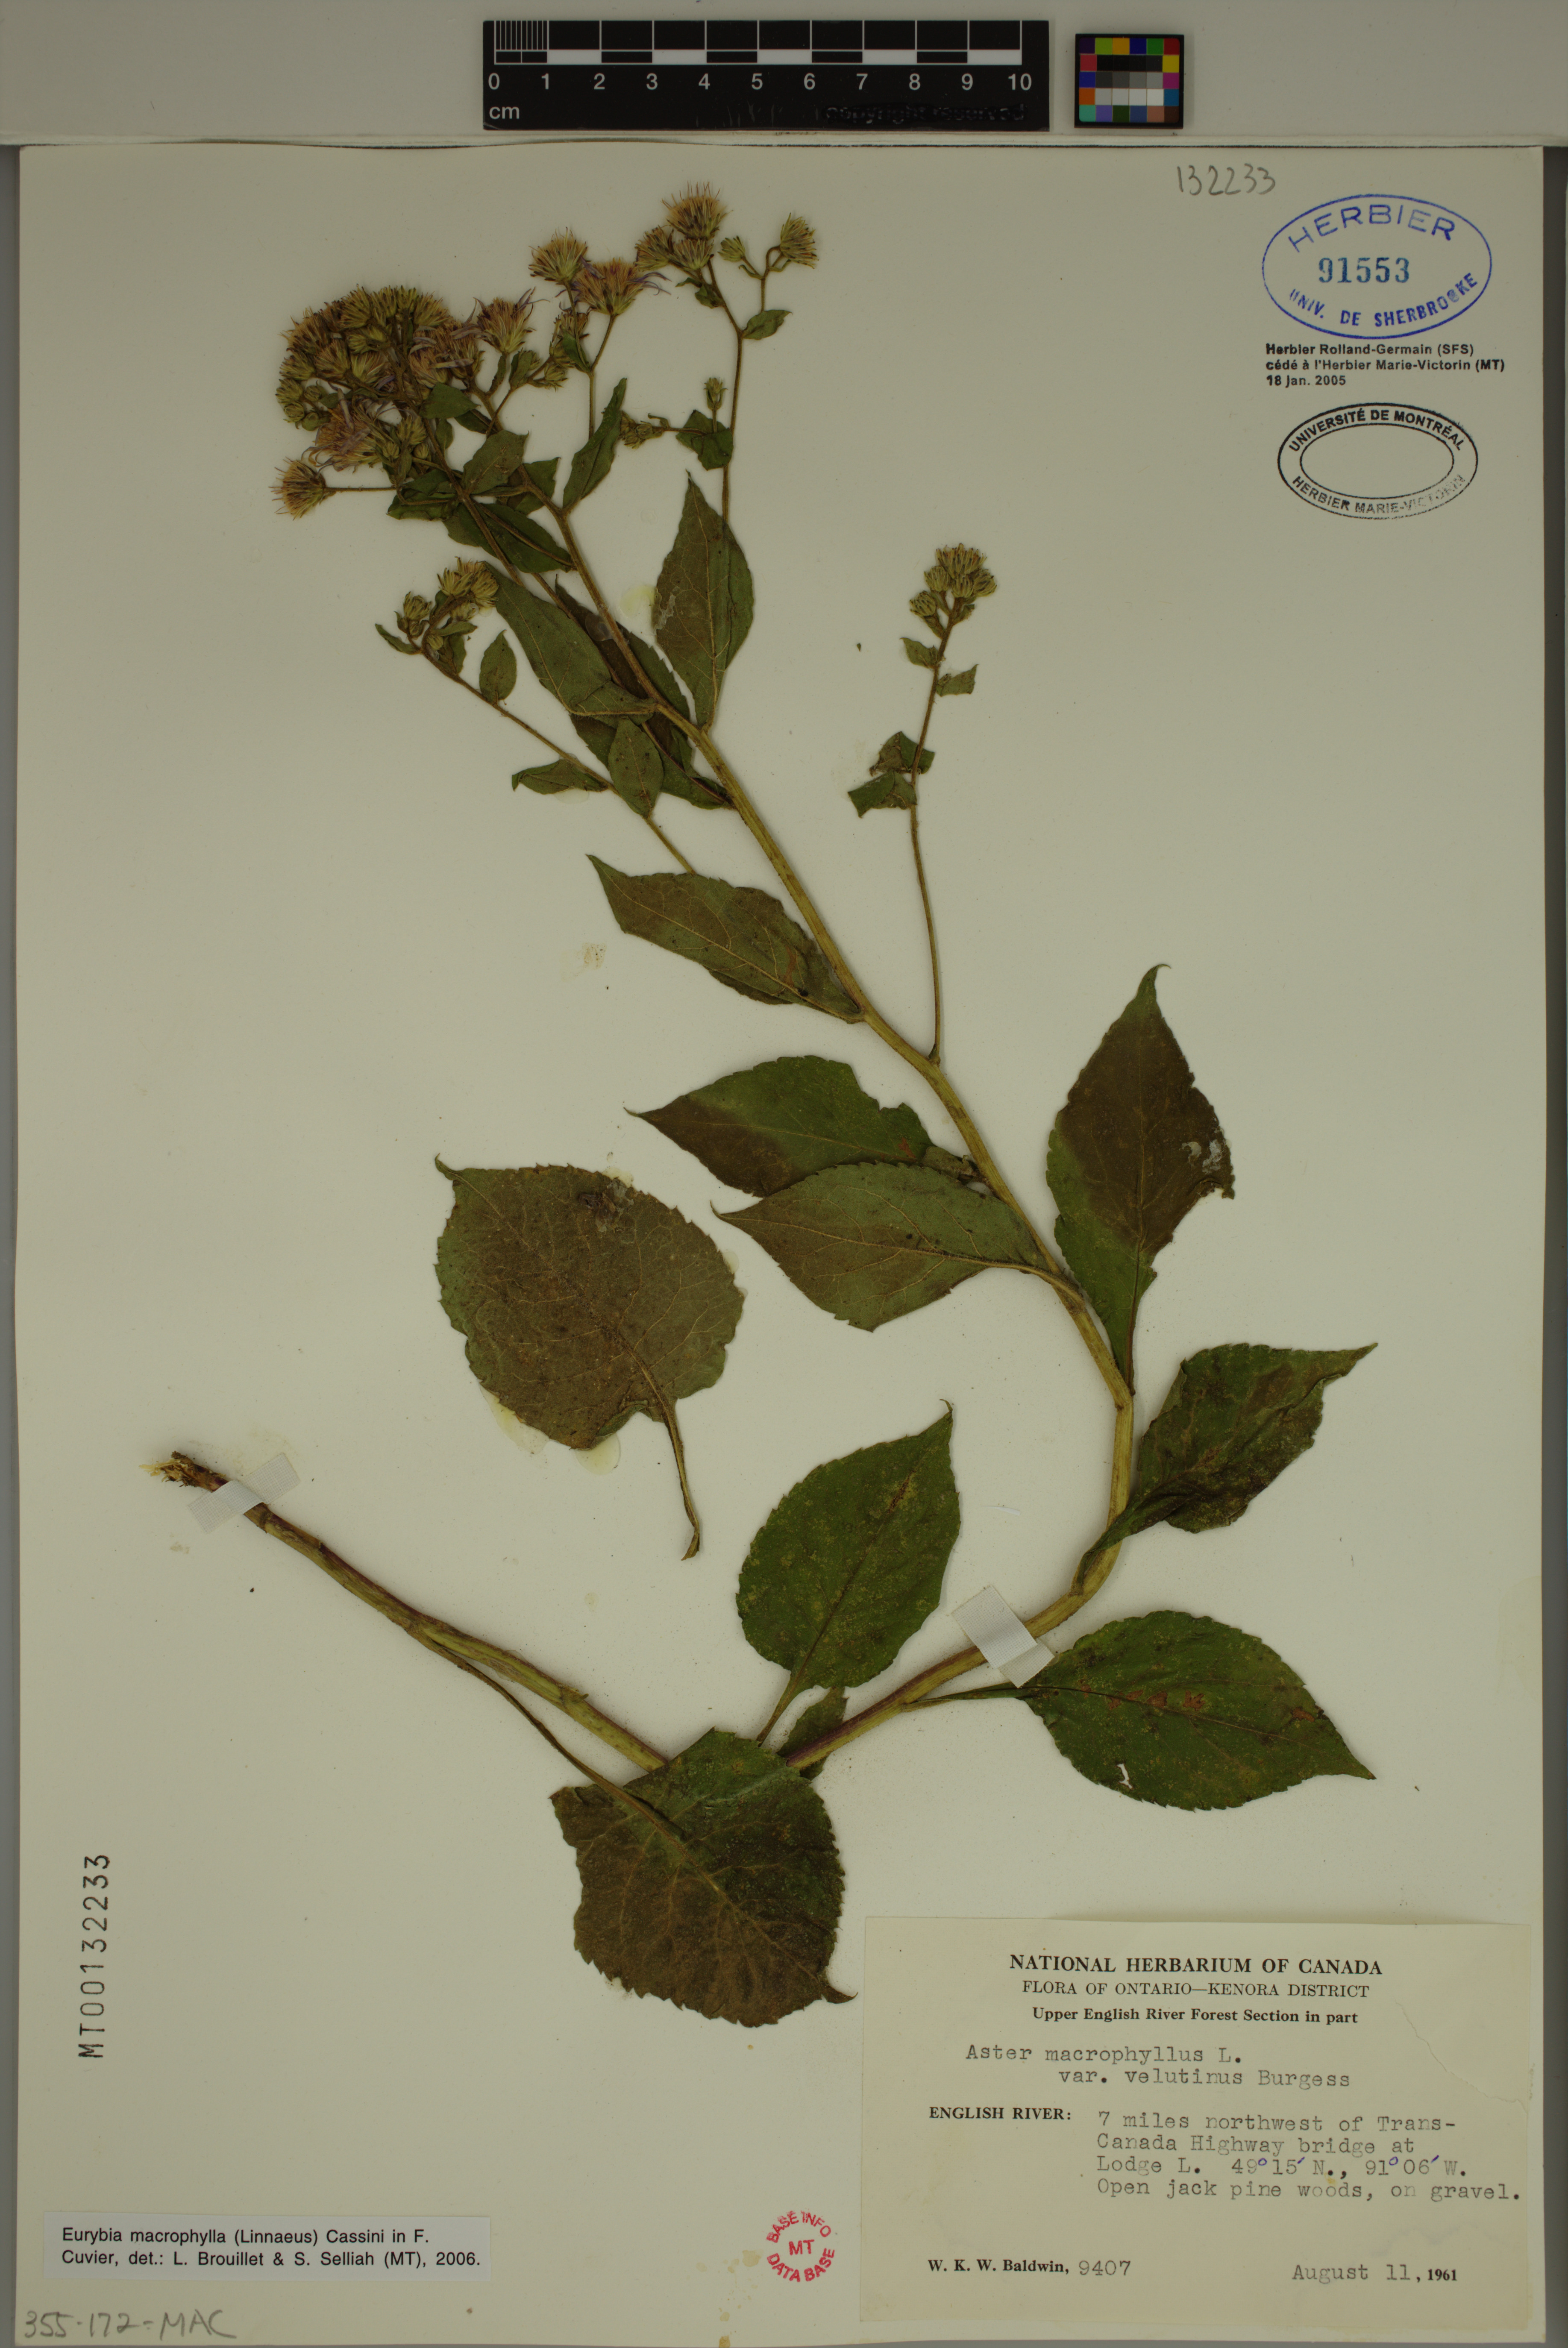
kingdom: Plantae
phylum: Tracheophyta
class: Magnoliopsida
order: Asterales
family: Asteraceae
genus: Eurybia
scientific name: Eurybia macrophylla
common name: Big-leaved aster
